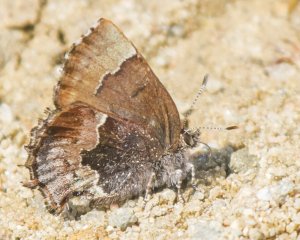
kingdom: Animalia
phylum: Arthropoda
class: Insecta
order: Lepidoptera
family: Lycaenidae
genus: Incisalia
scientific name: Incisalia henrici
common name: Henry's Elfin
